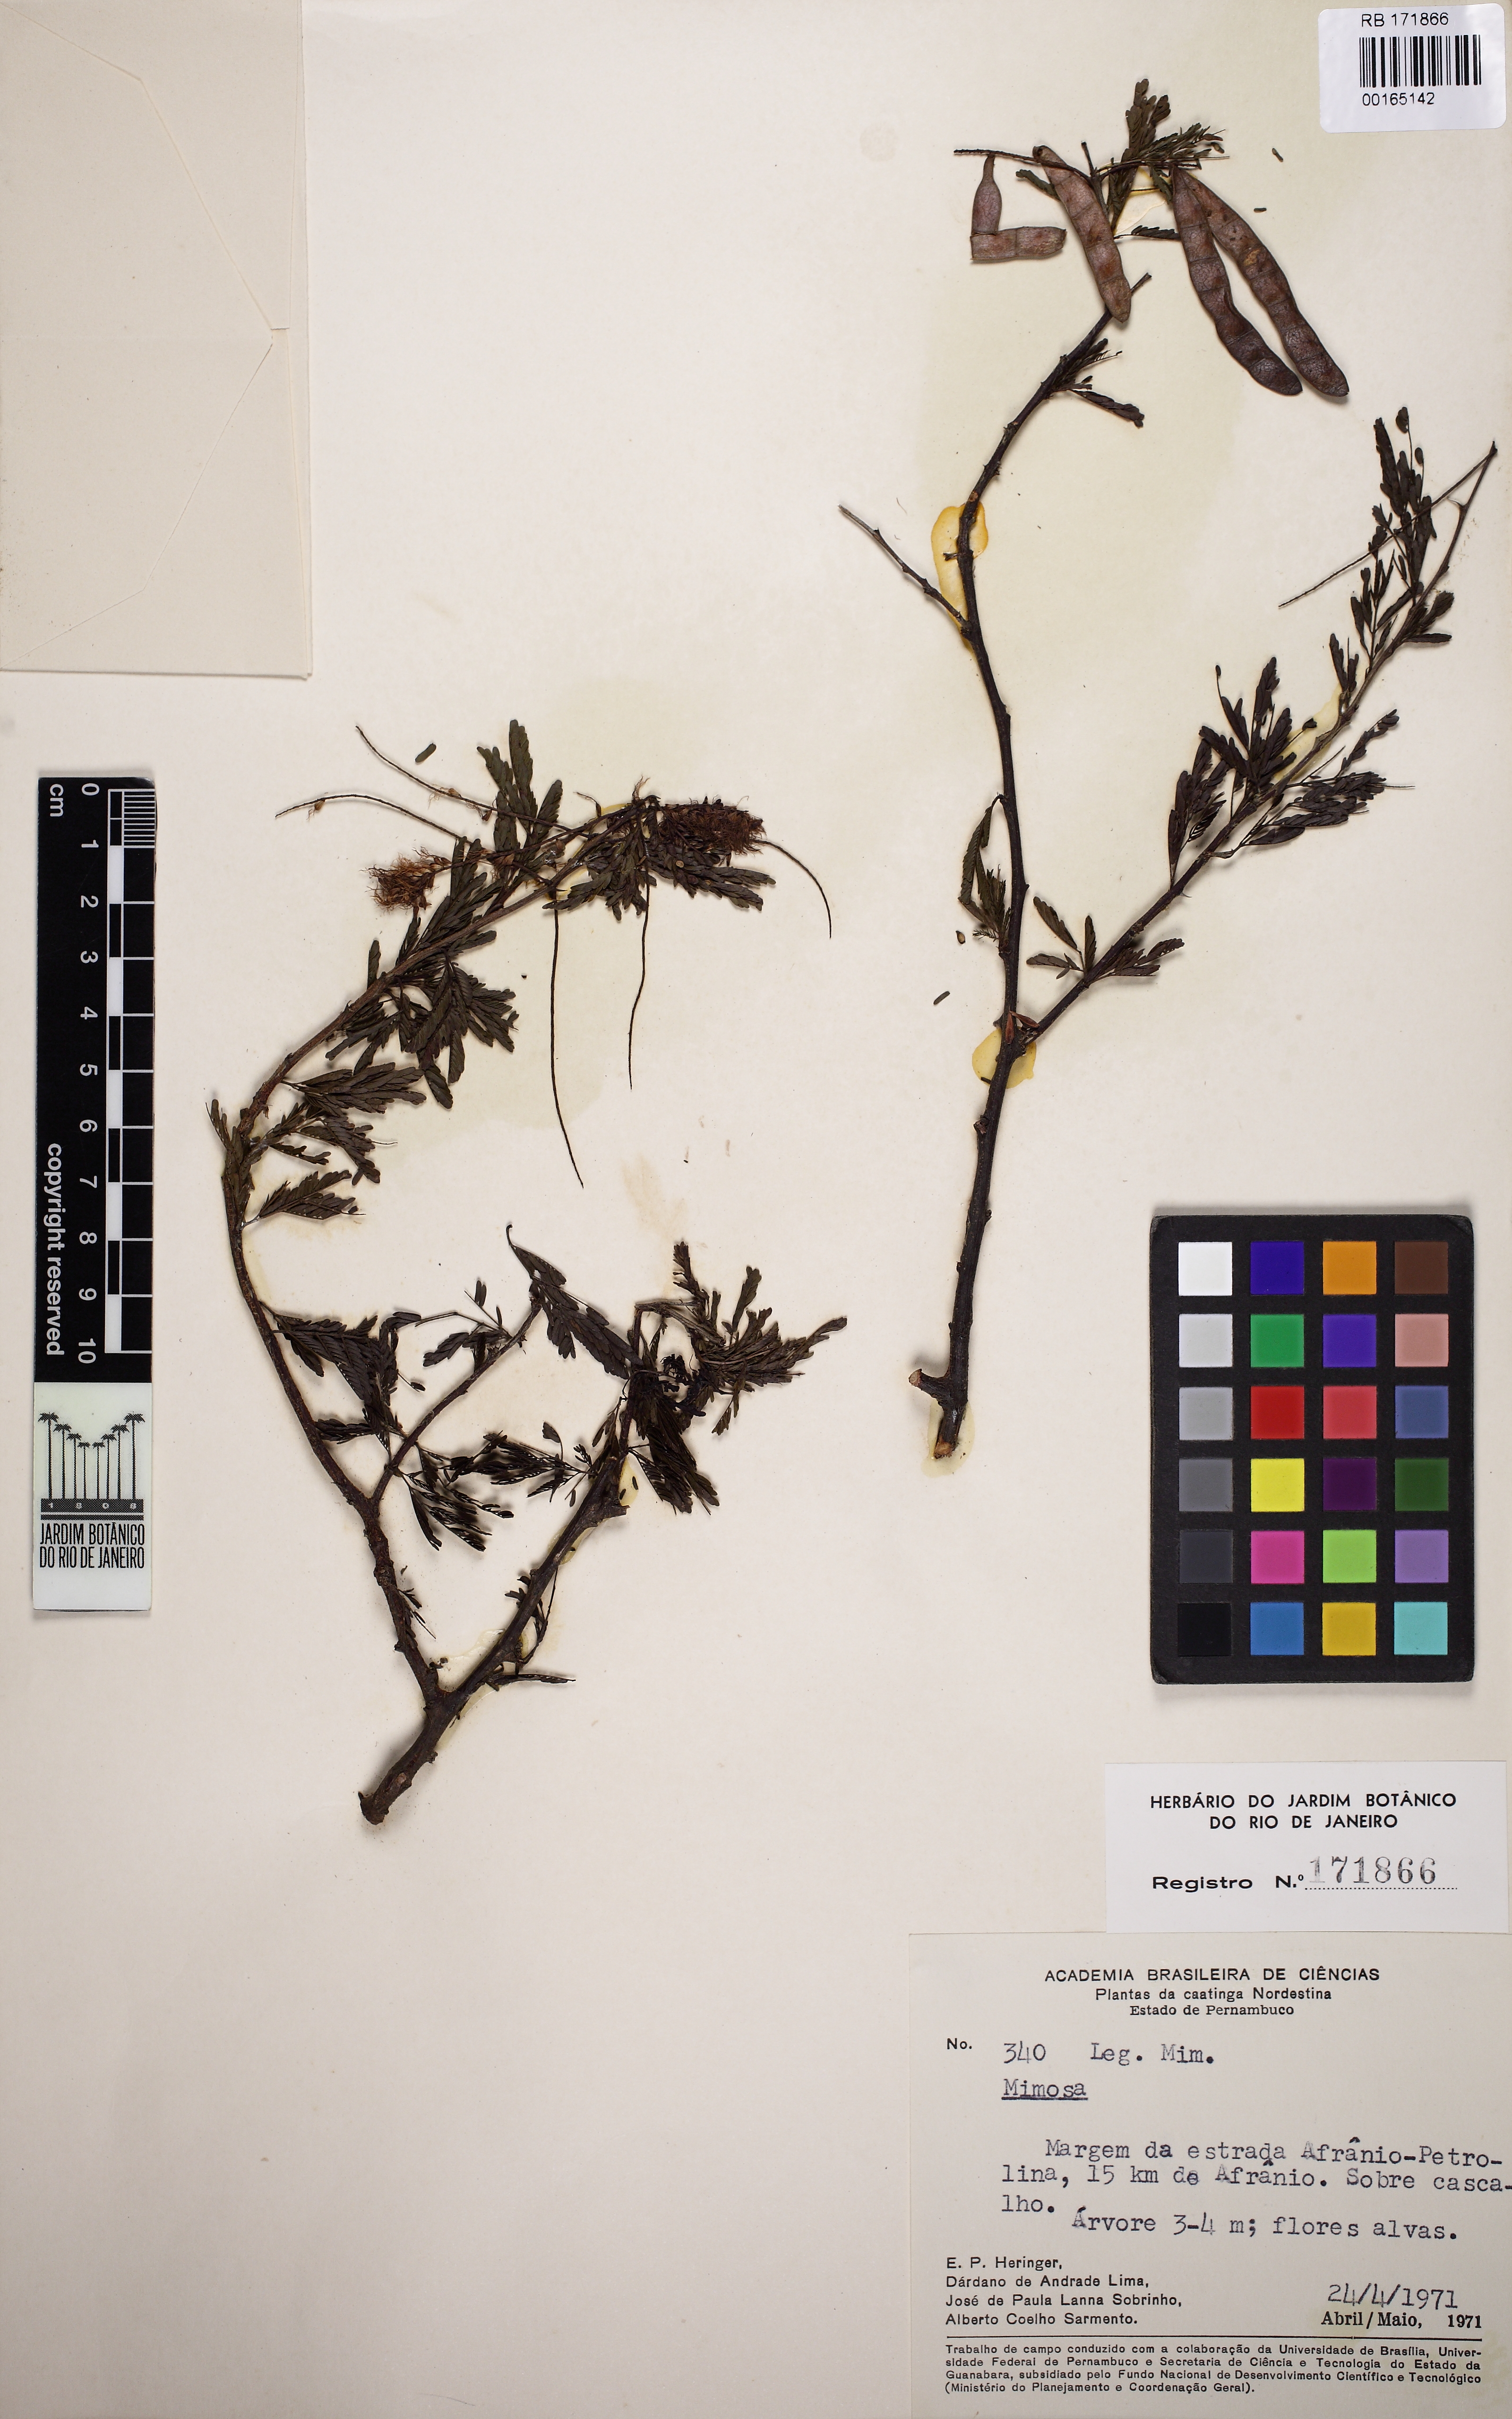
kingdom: Plantae
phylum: Tracheophyta
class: Magnoliopsida
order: Fabales
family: Fabaceae
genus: Mimosa
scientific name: Mimosa
